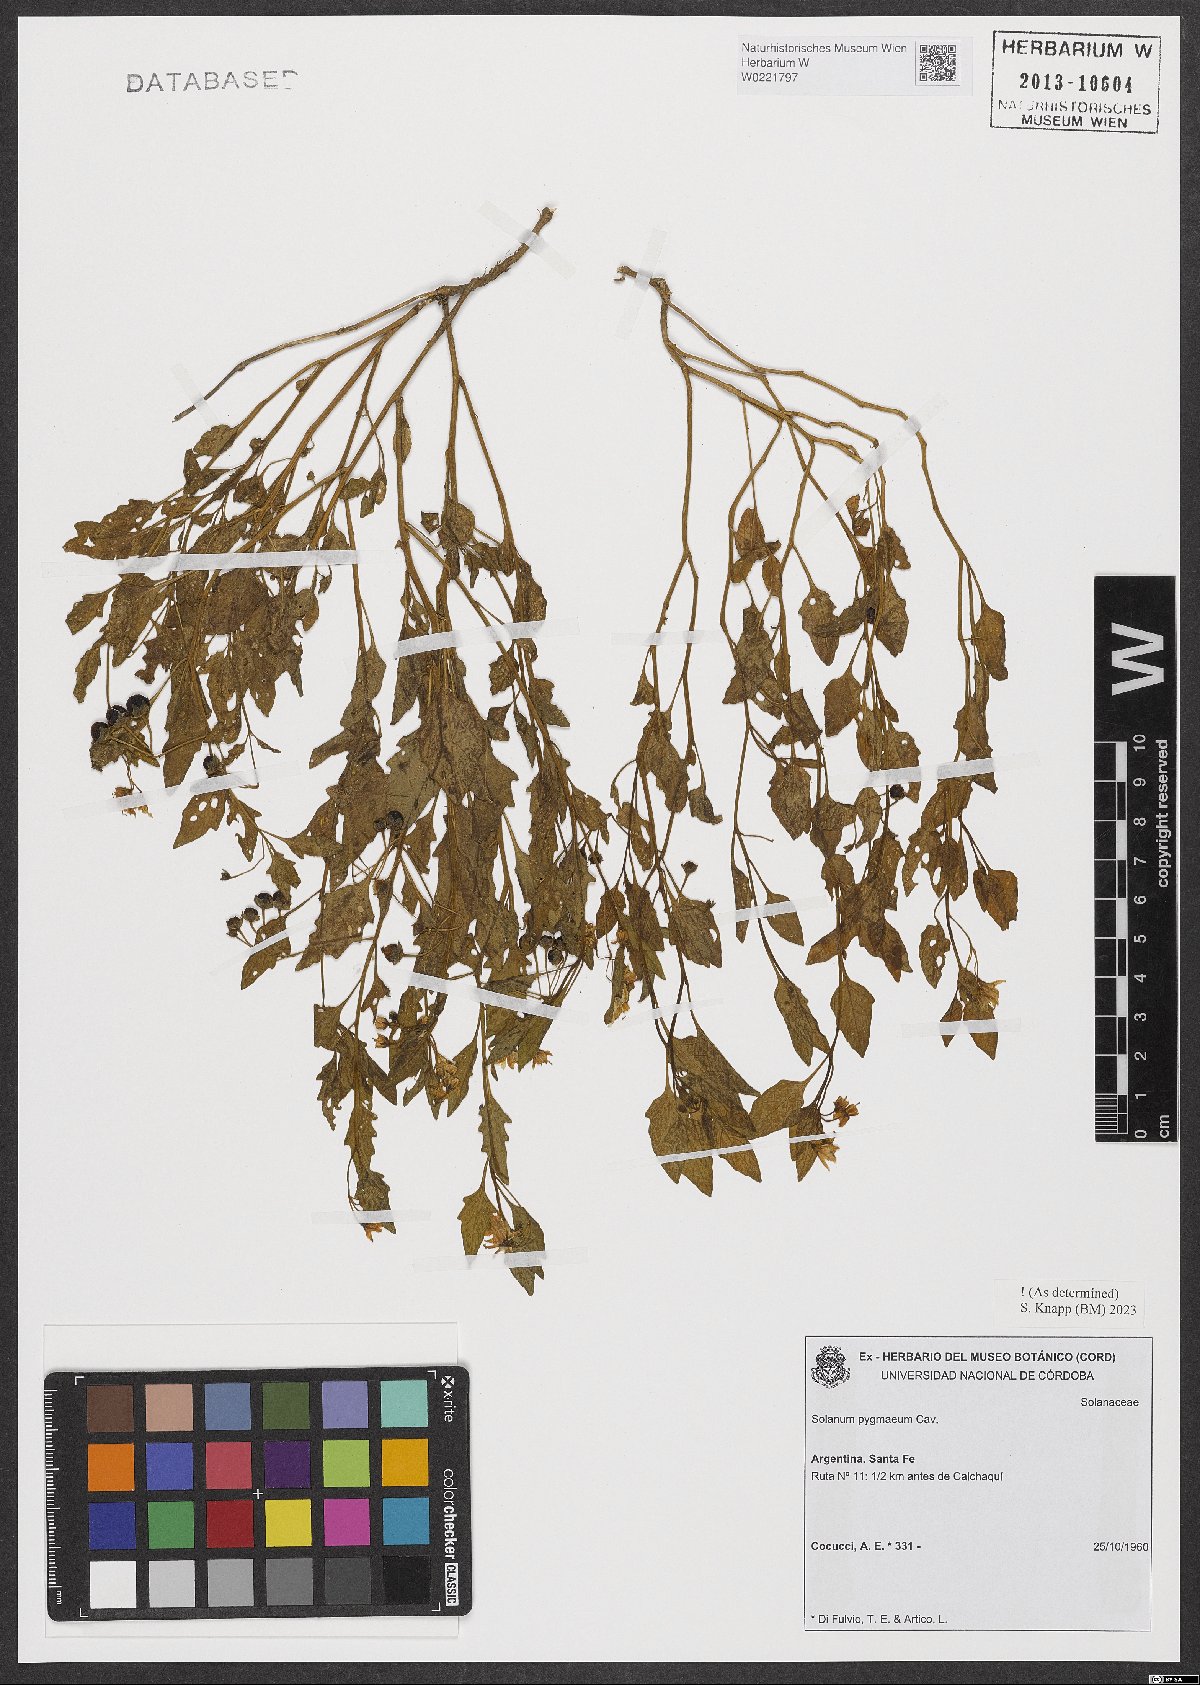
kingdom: Plantae
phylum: Tracheophyta
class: Magnoliopsida
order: Solanales
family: Solanaceae
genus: Solanum
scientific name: Solanum pygmaeum
